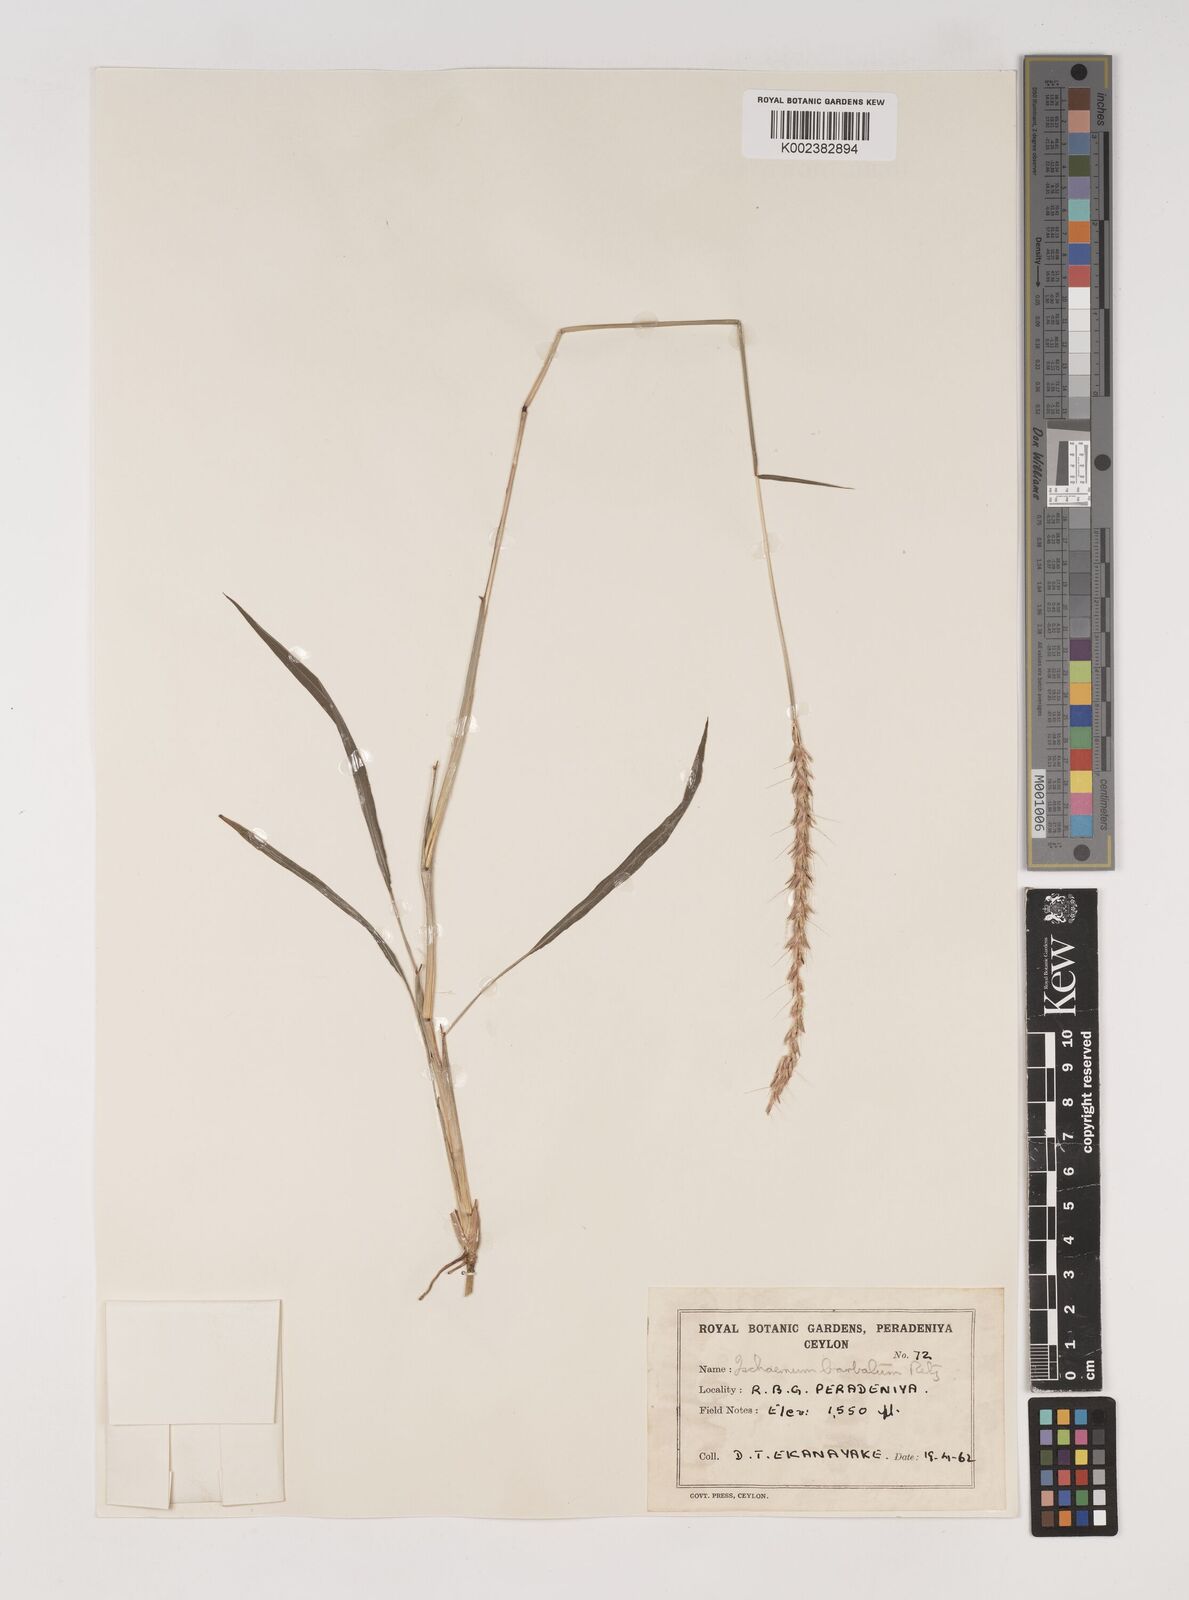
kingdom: Plantae
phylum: Tracheophyta
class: Liliopsida
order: Poales
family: Poaceae
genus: Ischaemum
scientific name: Ischaemum
